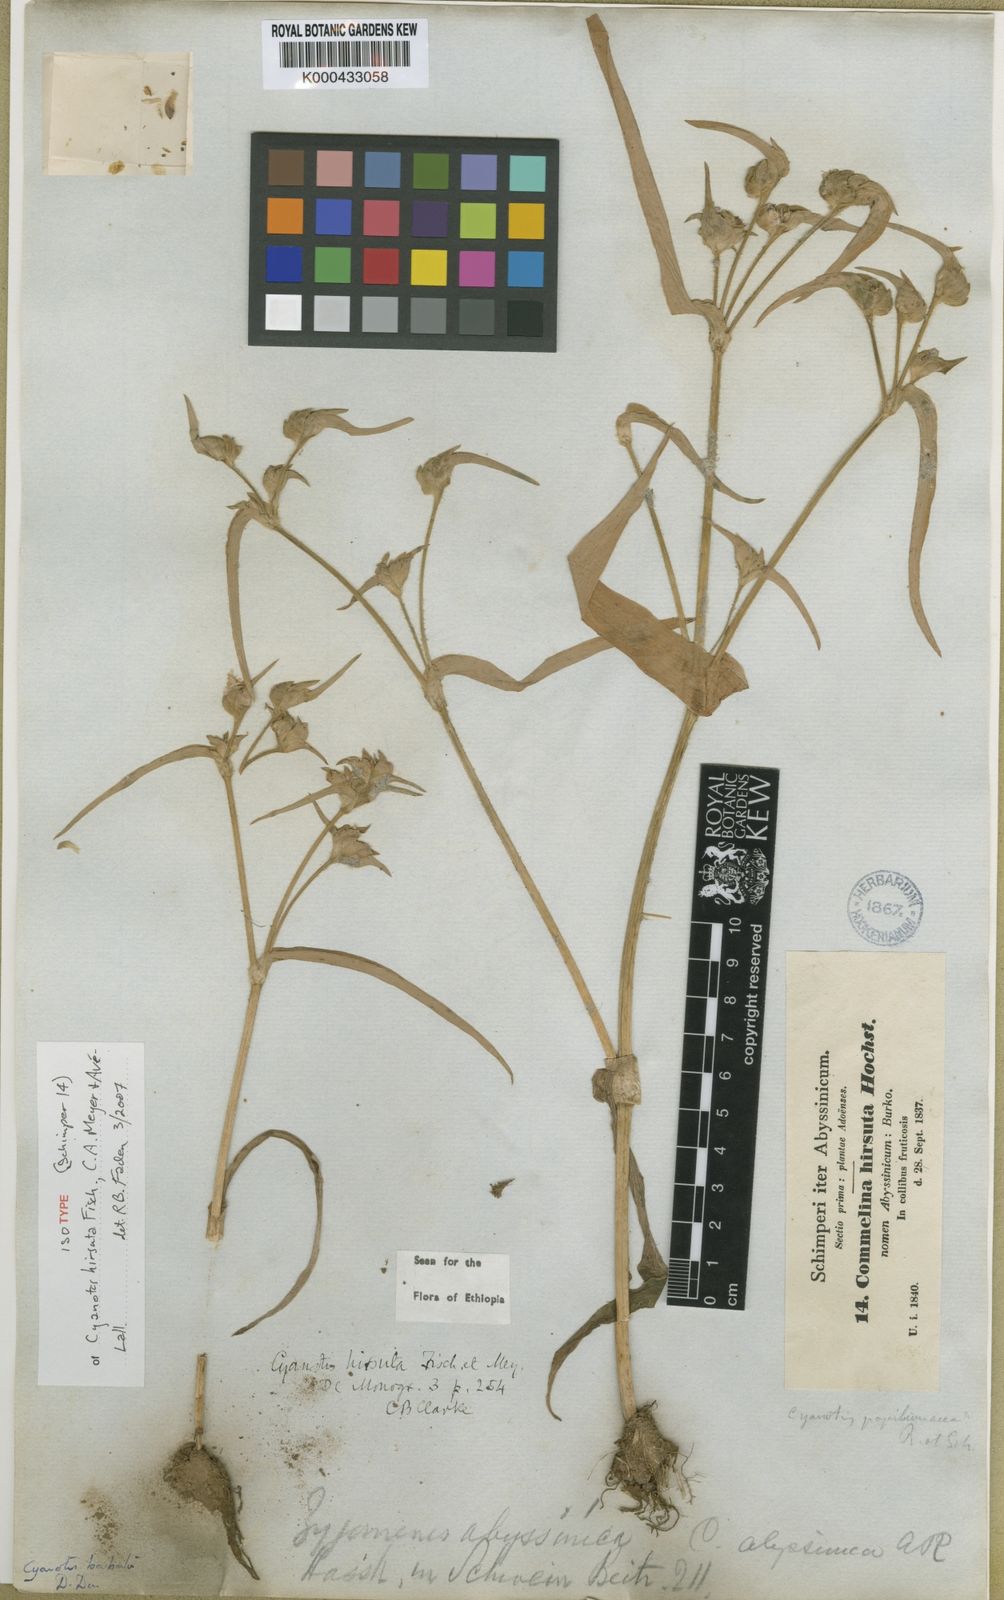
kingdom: Plantae
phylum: Tracheophyta
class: Liliopsida
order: Commelinales
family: Commelinaceae
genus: Cyanotis
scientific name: Cyanotis vaga
